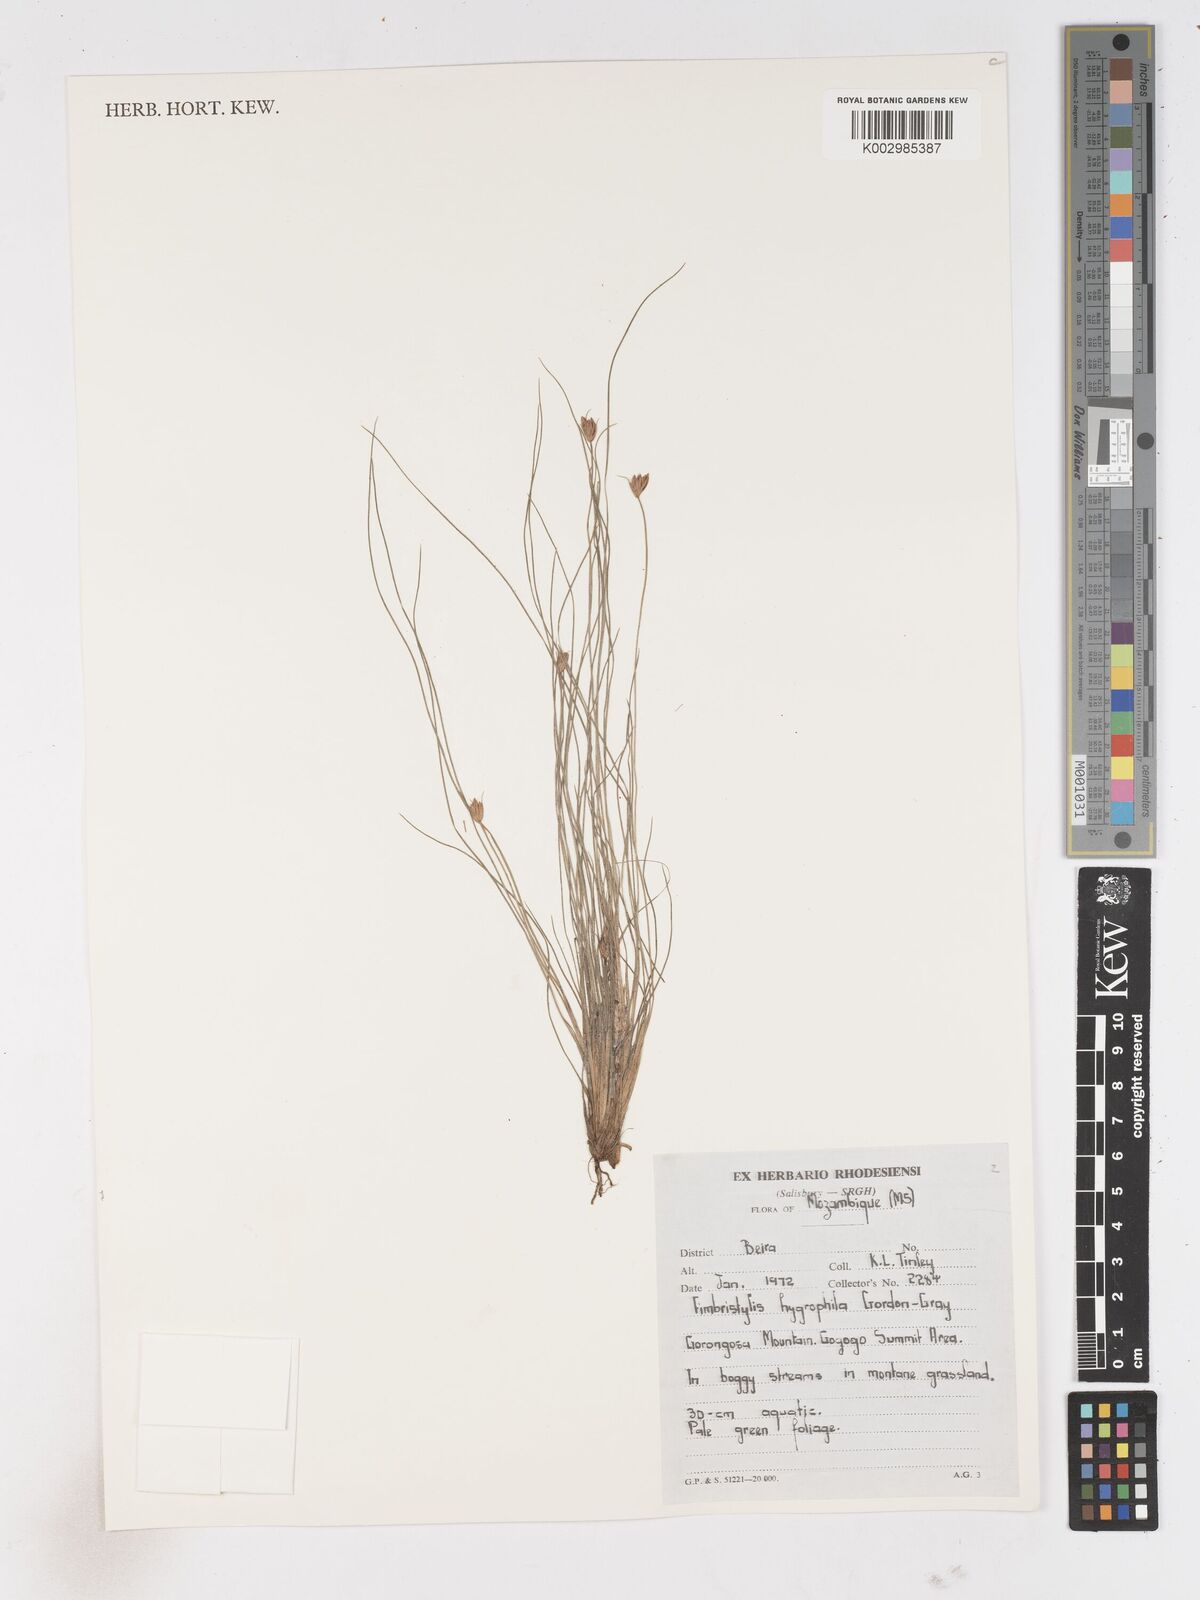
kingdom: Plantae
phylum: Tracheophyta
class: Liliopsida
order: Poales
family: Cyperaceae
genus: Arthrostylis
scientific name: Arthrostylis aphylla
